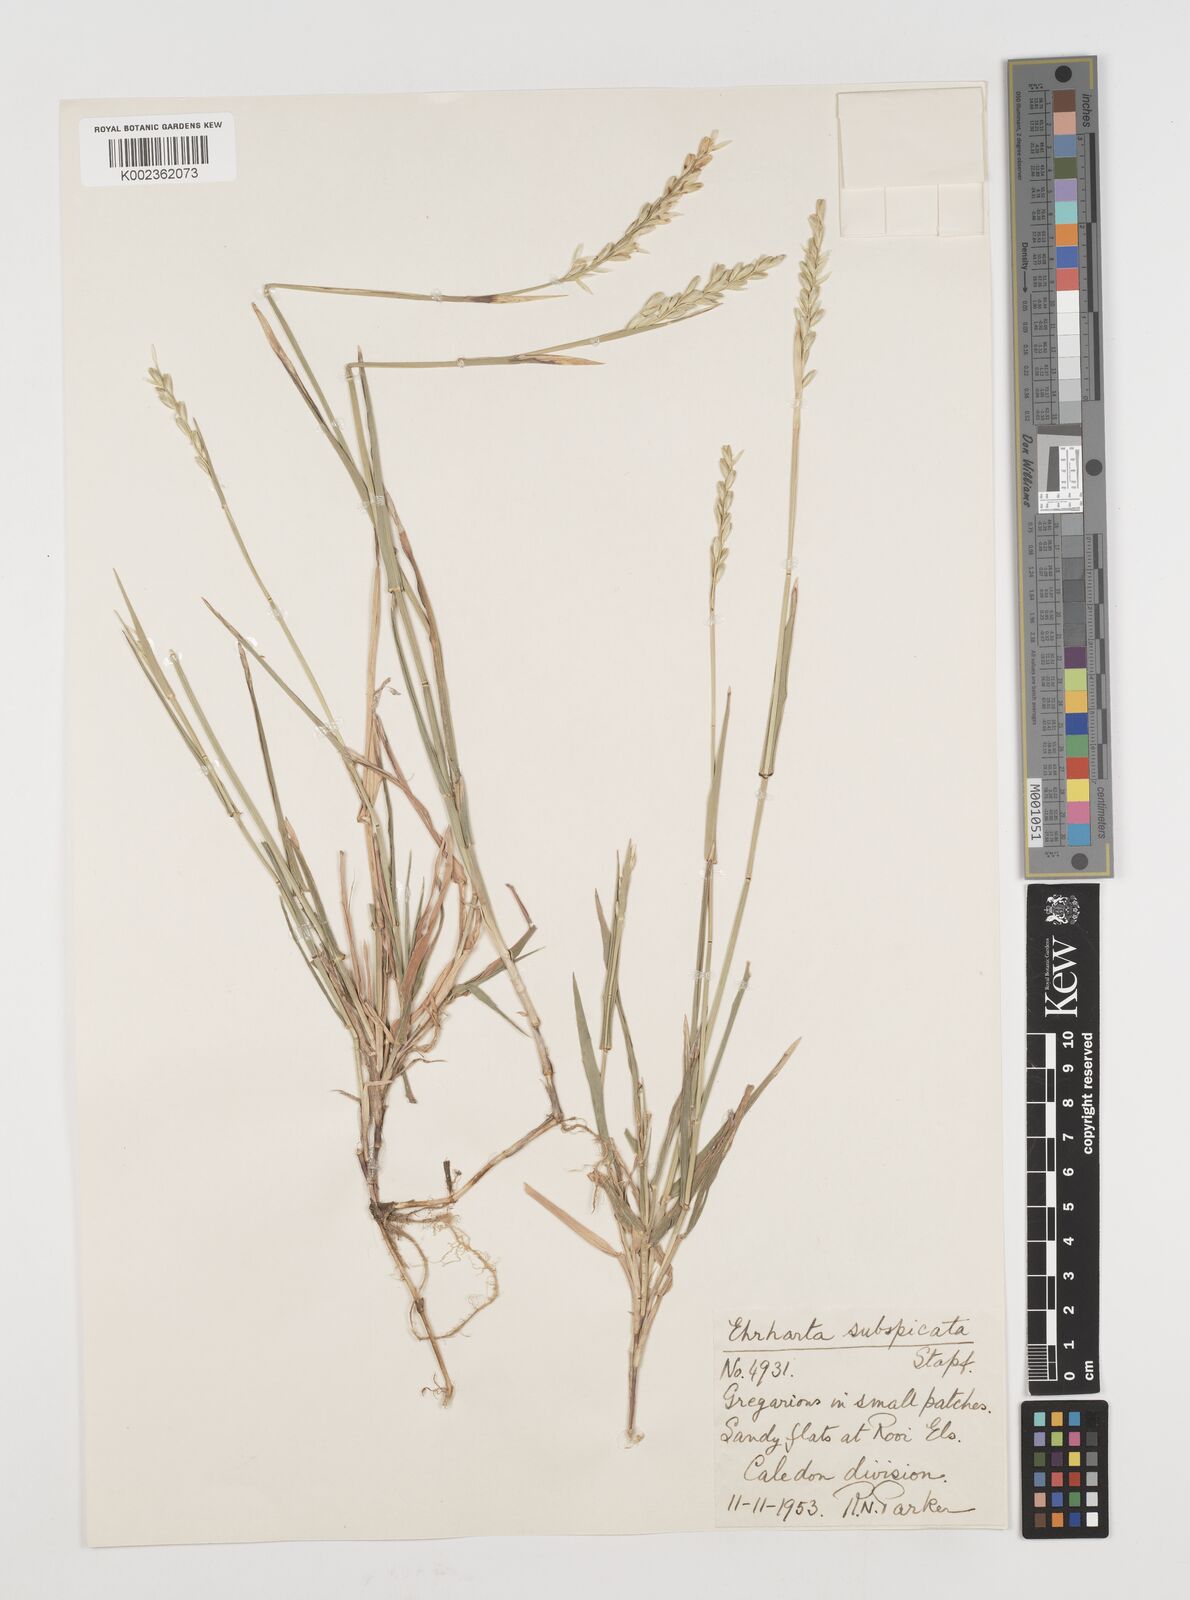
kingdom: Plantae
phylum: Tracheophyta
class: Liliopsida
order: Poales
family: Poaceae
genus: Ehrharta
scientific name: Ehrharta rehmannii
